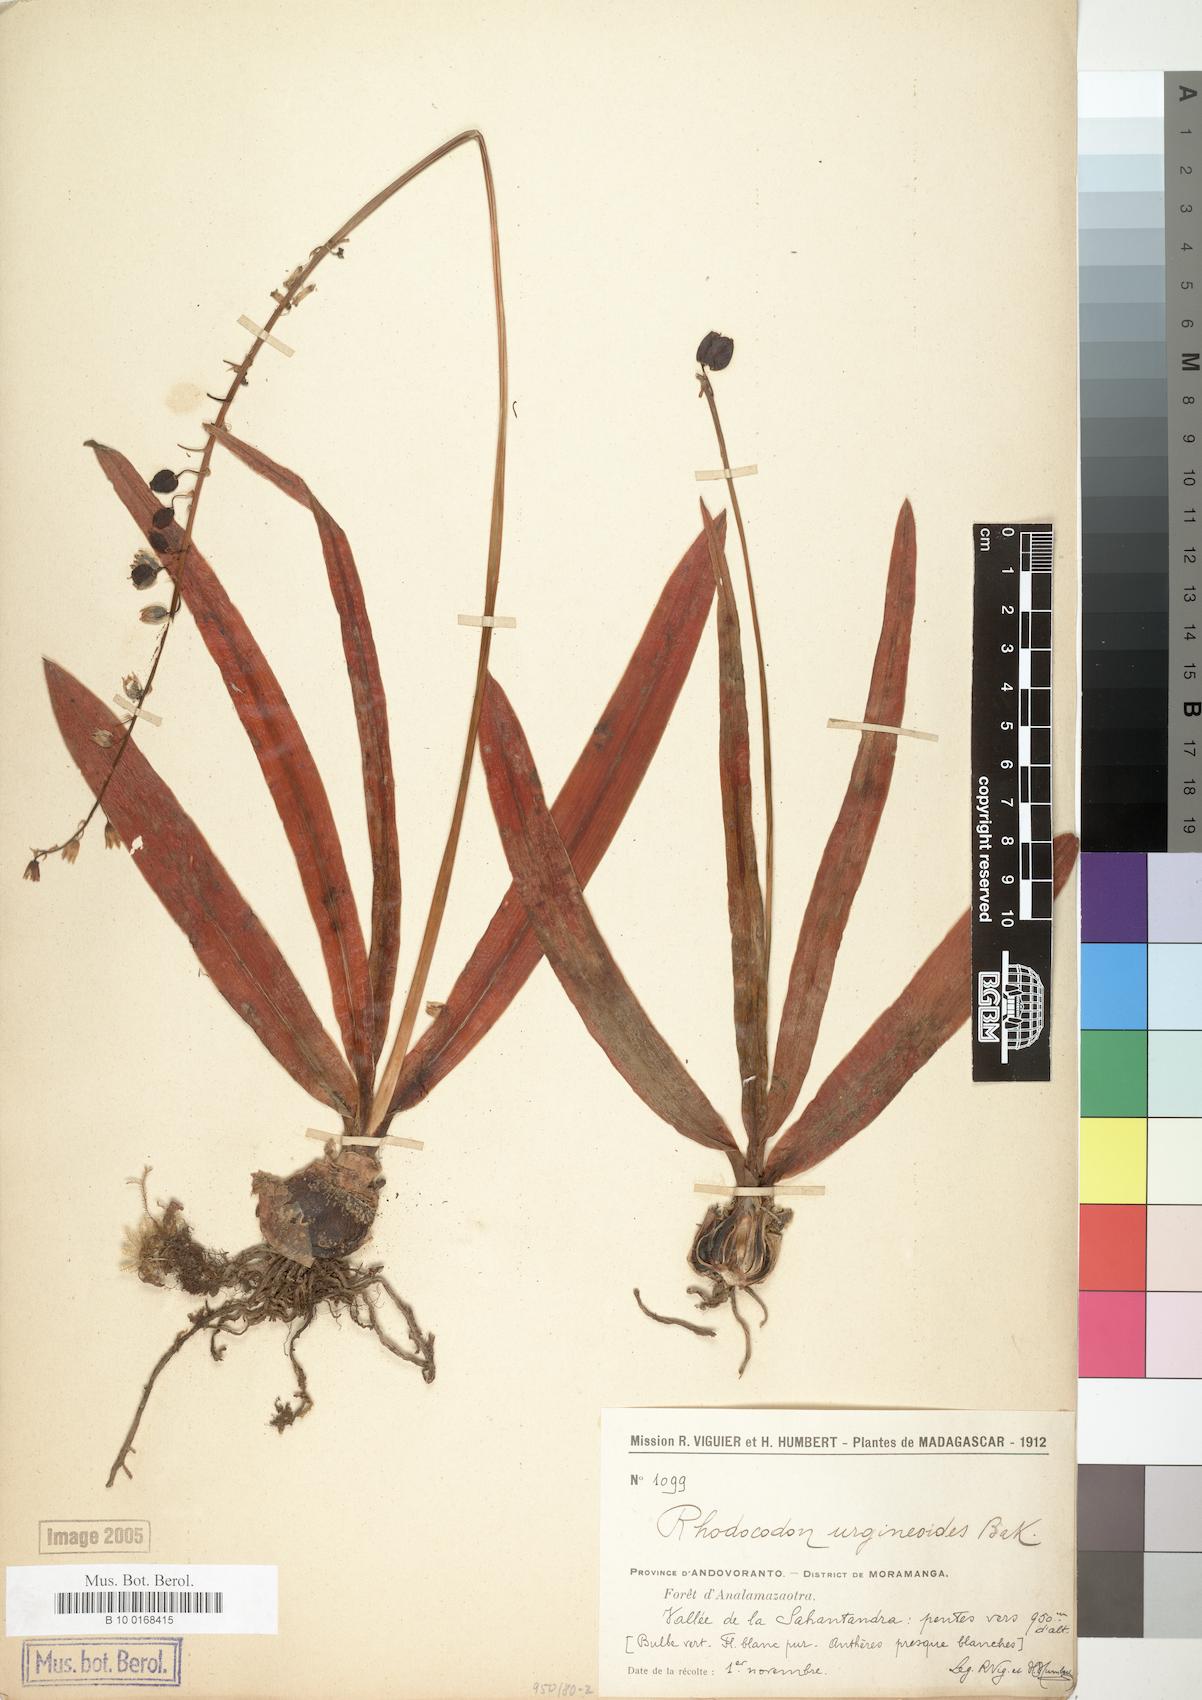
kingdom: Plantae
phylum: Tracheophyta
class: Liliopsida
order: Asparagales
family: Asparagaceae
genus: Drimia
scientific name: Drimia urgineoides
